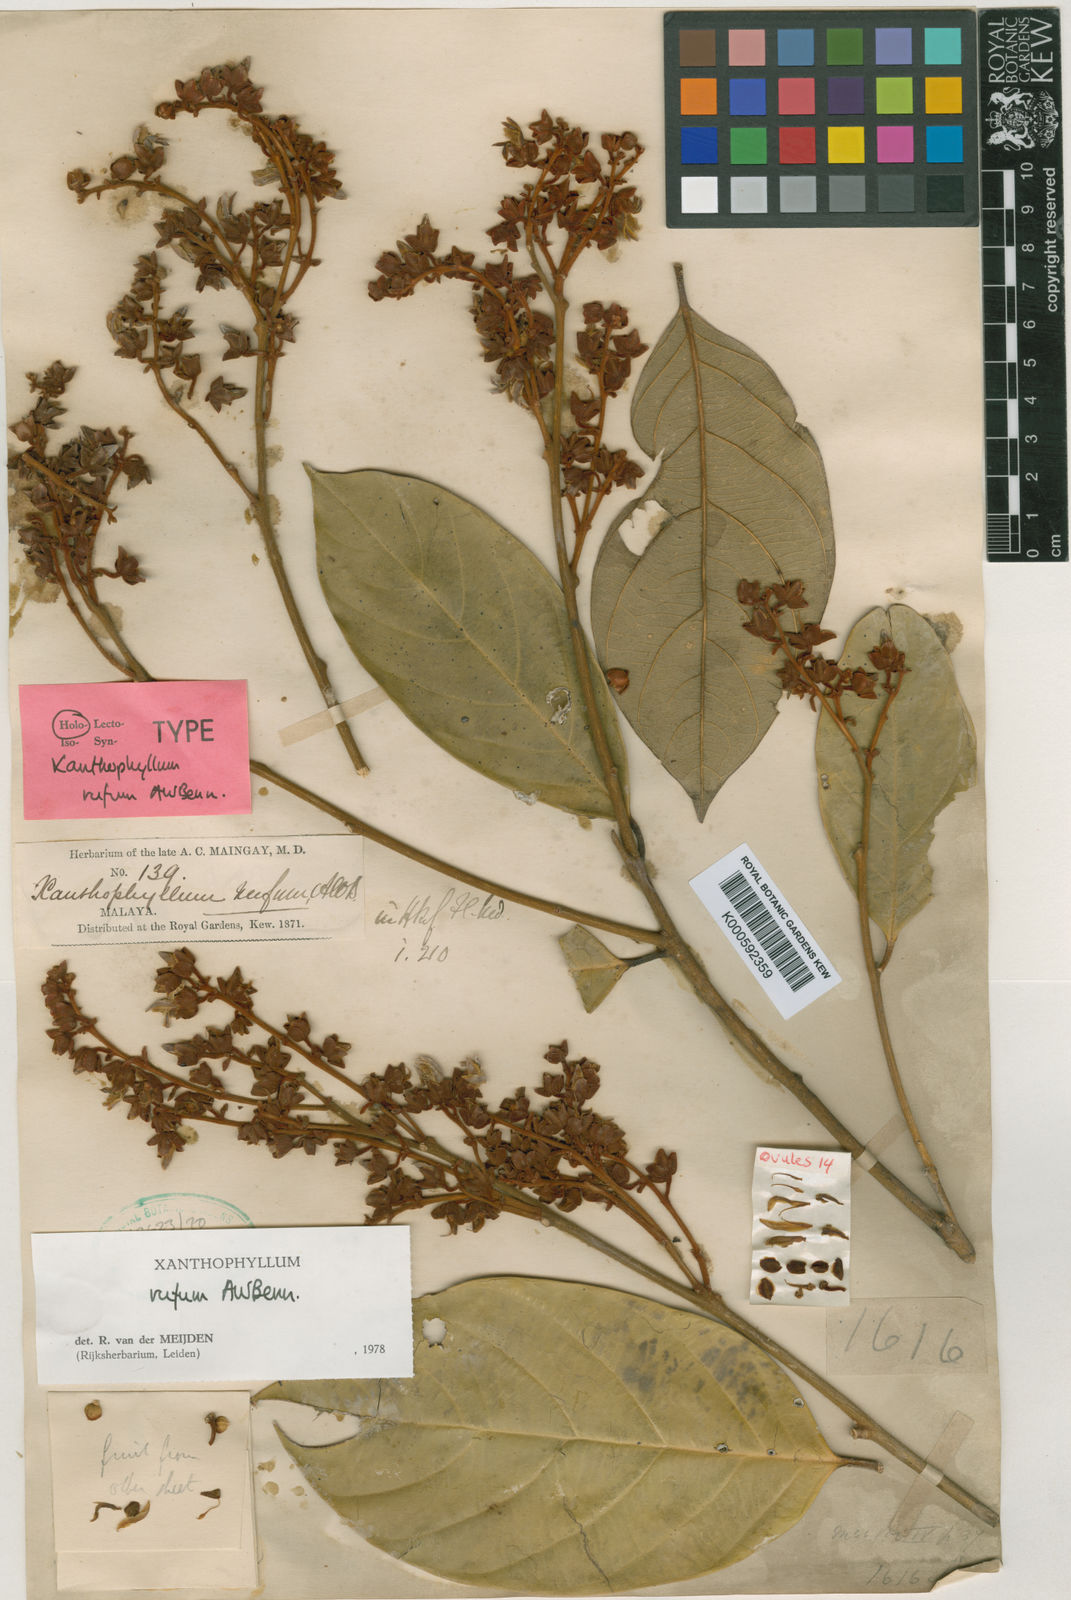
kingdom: Plantae
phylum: Tracheophyta
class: Magnoliopsida
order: Fabales
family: Polygalaceae
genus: Xanthophyllum
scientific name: Xanthophyllum rufum
